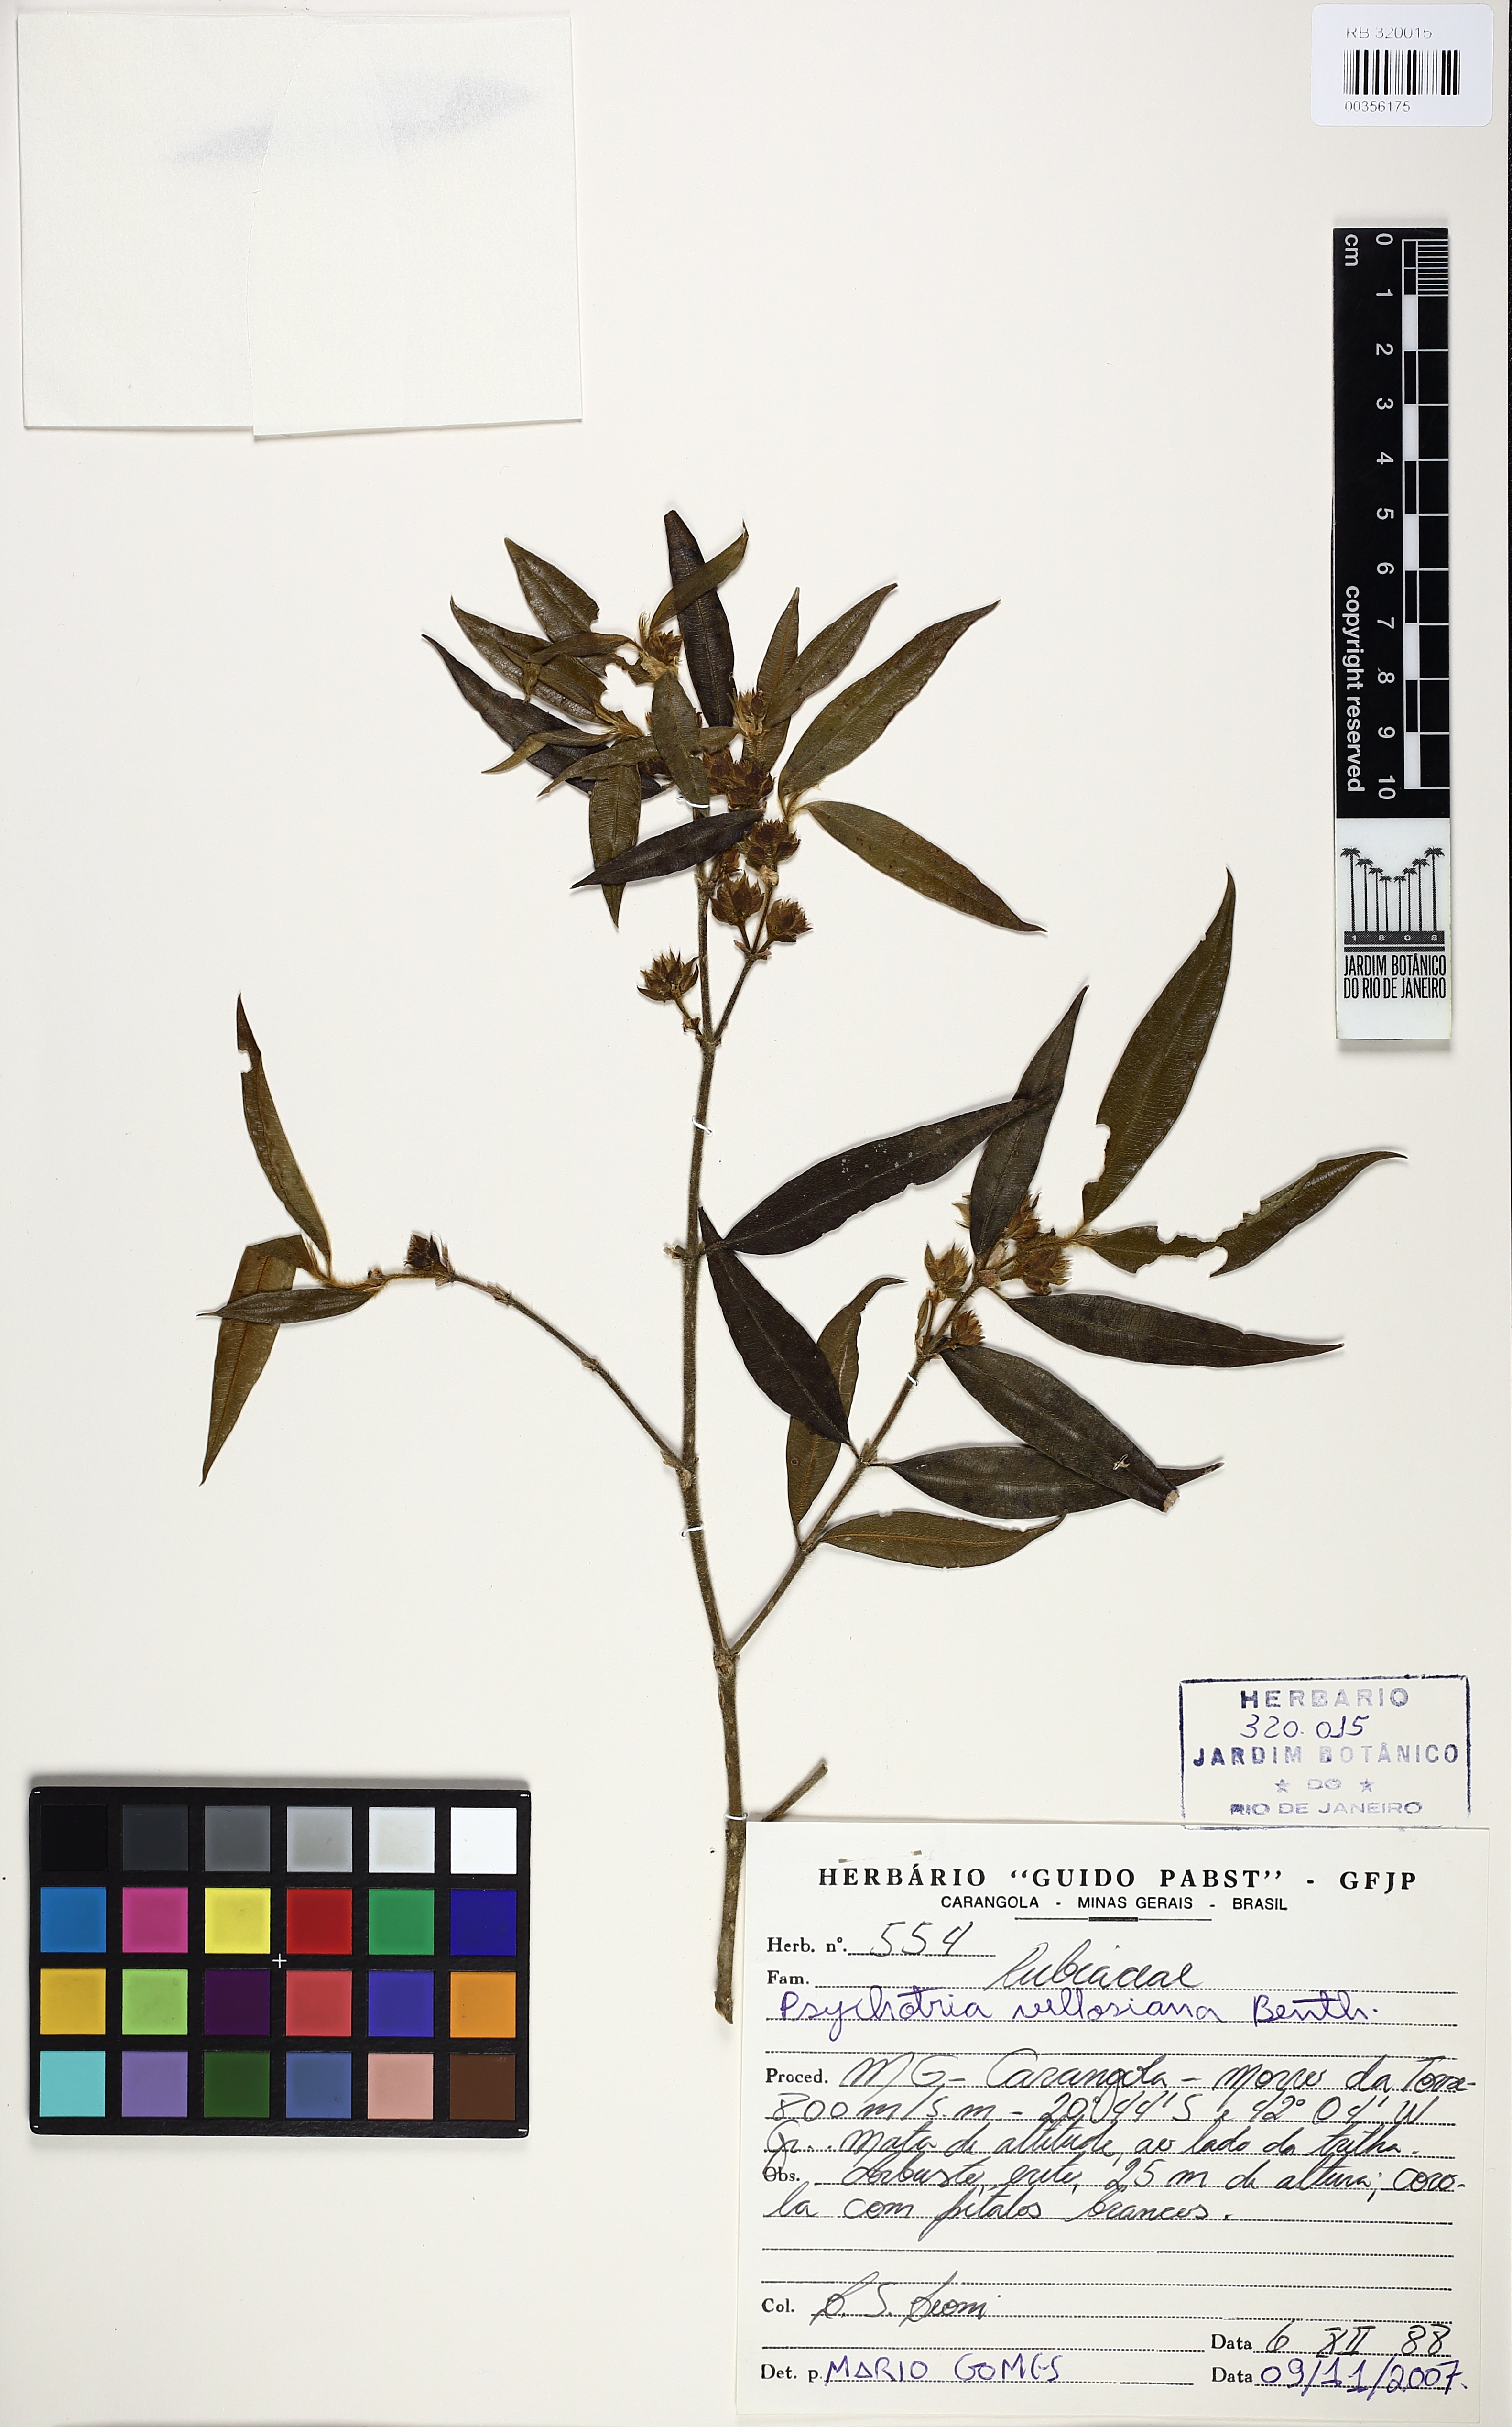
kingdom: Plantae
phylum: Tracheophyta
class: Magnoliopsida
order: Gentianales
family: Rubiaceae
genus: Palicourea
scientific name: Palicourea sessilis
